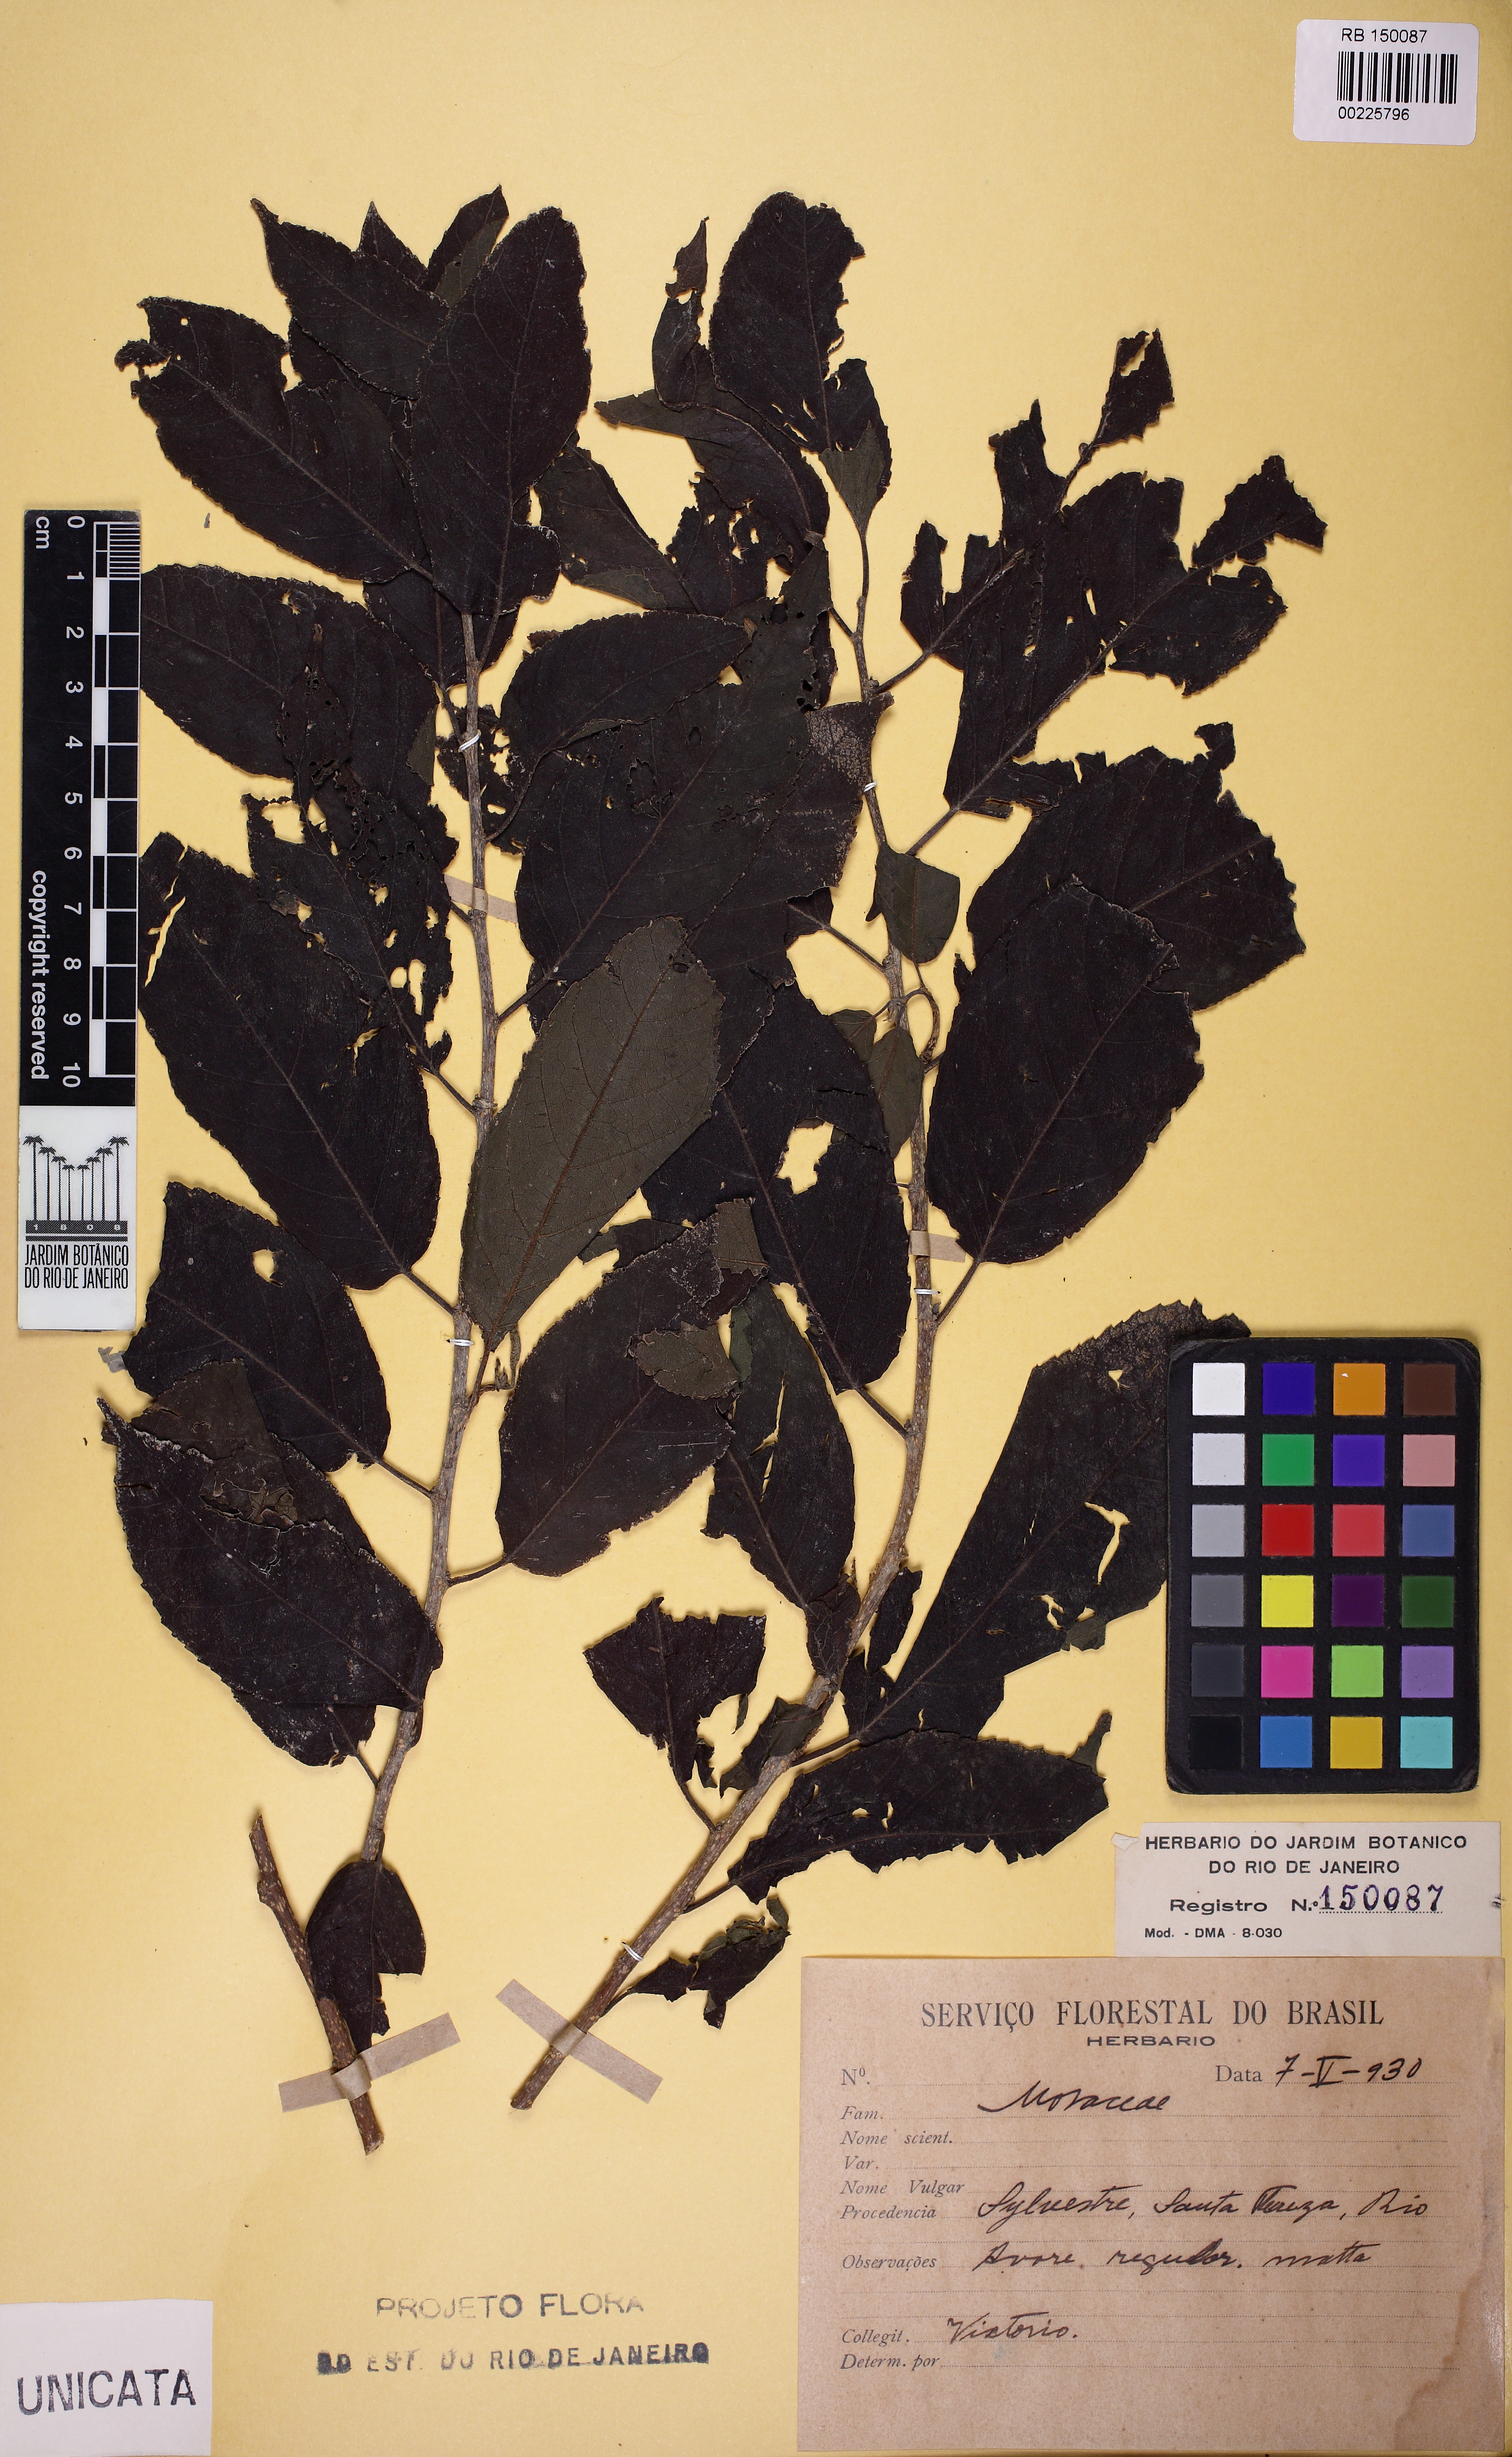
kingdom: Plantae
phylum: Tracheophyta
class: Magnoliopsida
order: Rosales
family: Moraceae
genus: Maclura
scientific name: Maclura tinctoria
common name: Old fustic
